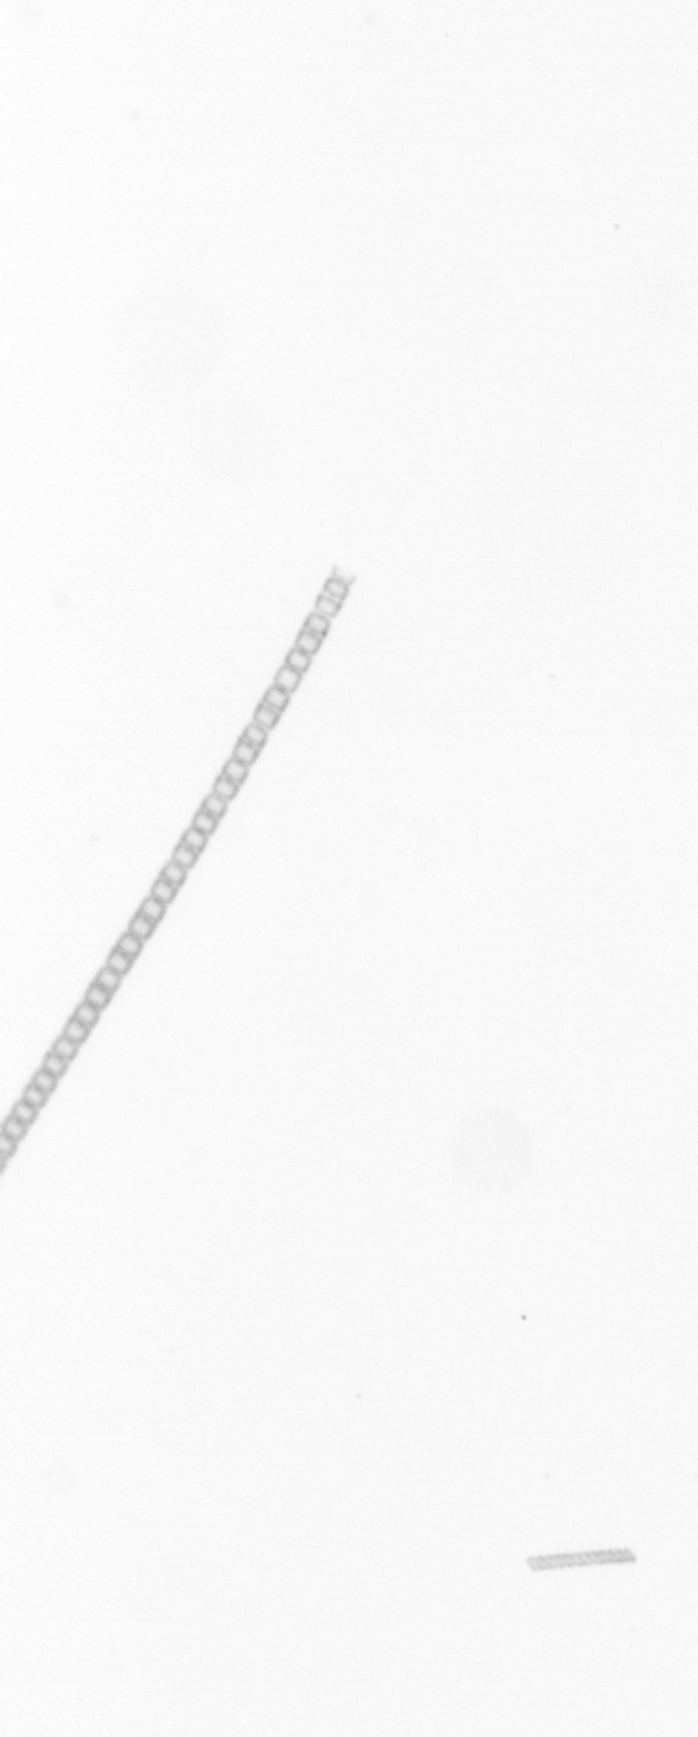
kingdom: Chromista
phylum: Ochrophyta
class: Bacillariophyceae
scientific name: Bacillariophyceae
